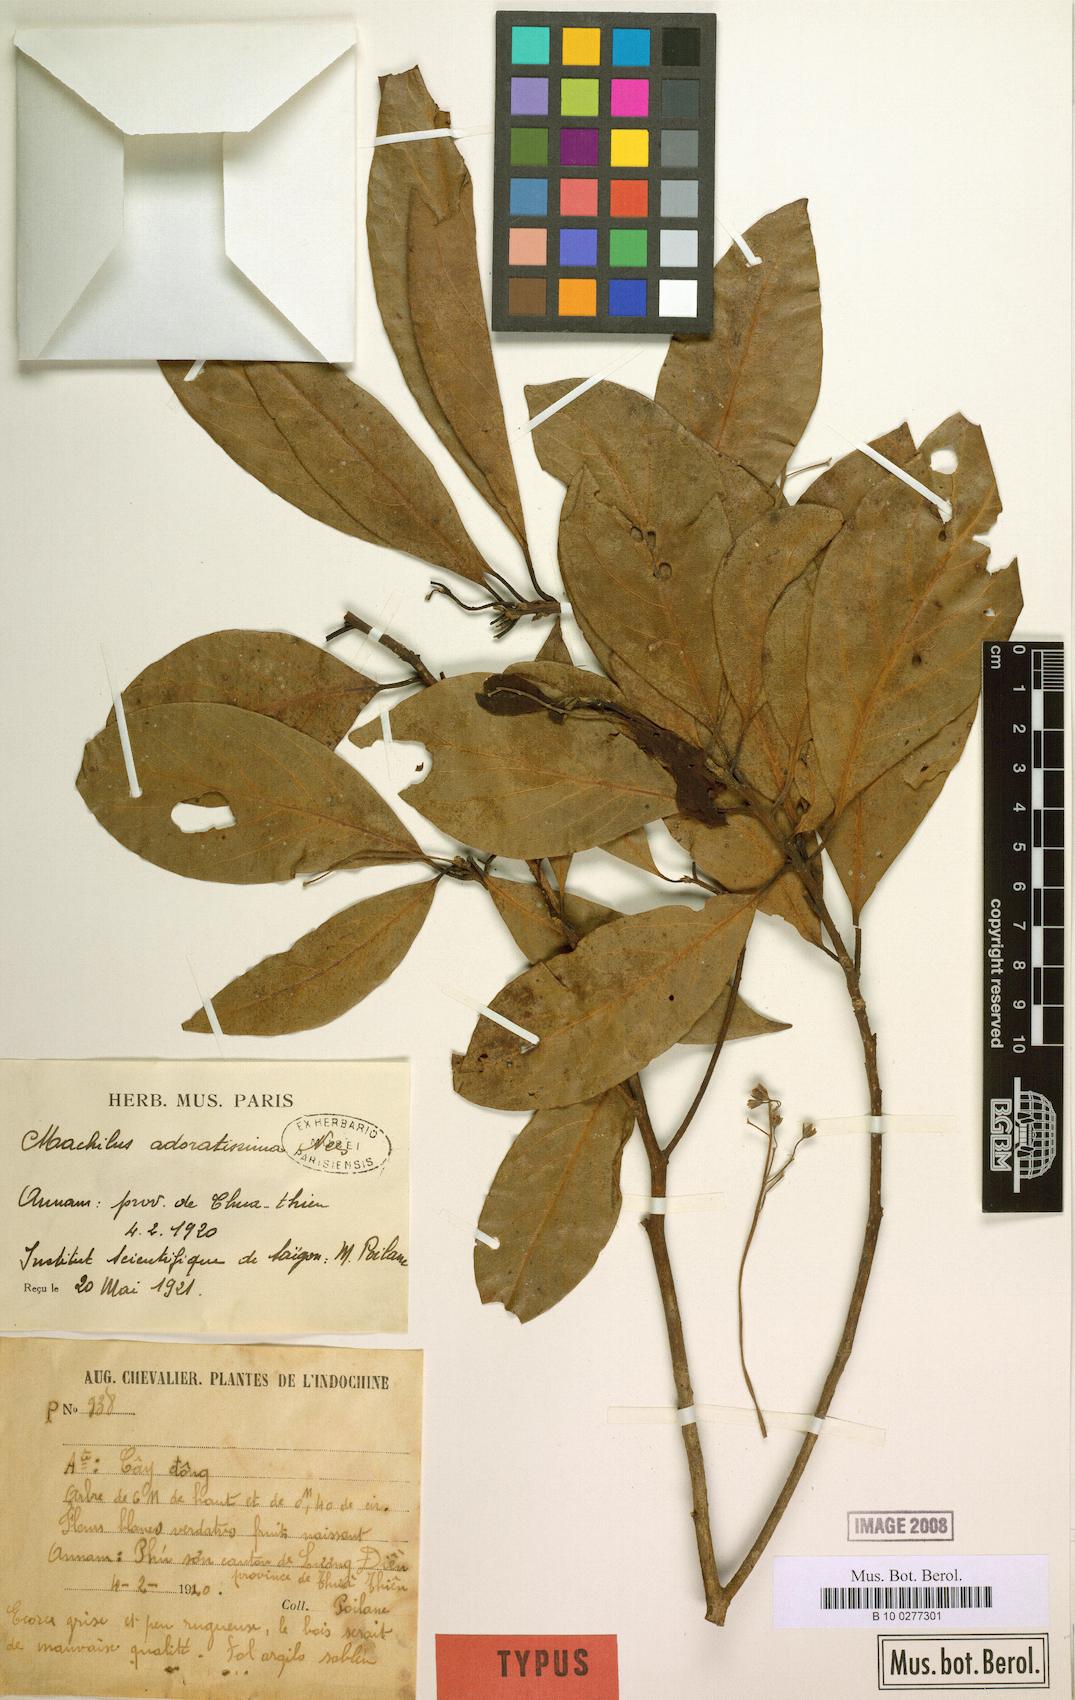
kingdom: Plantae
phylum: Tracheophyta
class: Magnoliopsida
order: Laurales
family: Lauraceae
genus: Machilus
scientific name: Machilus odoratissimus
